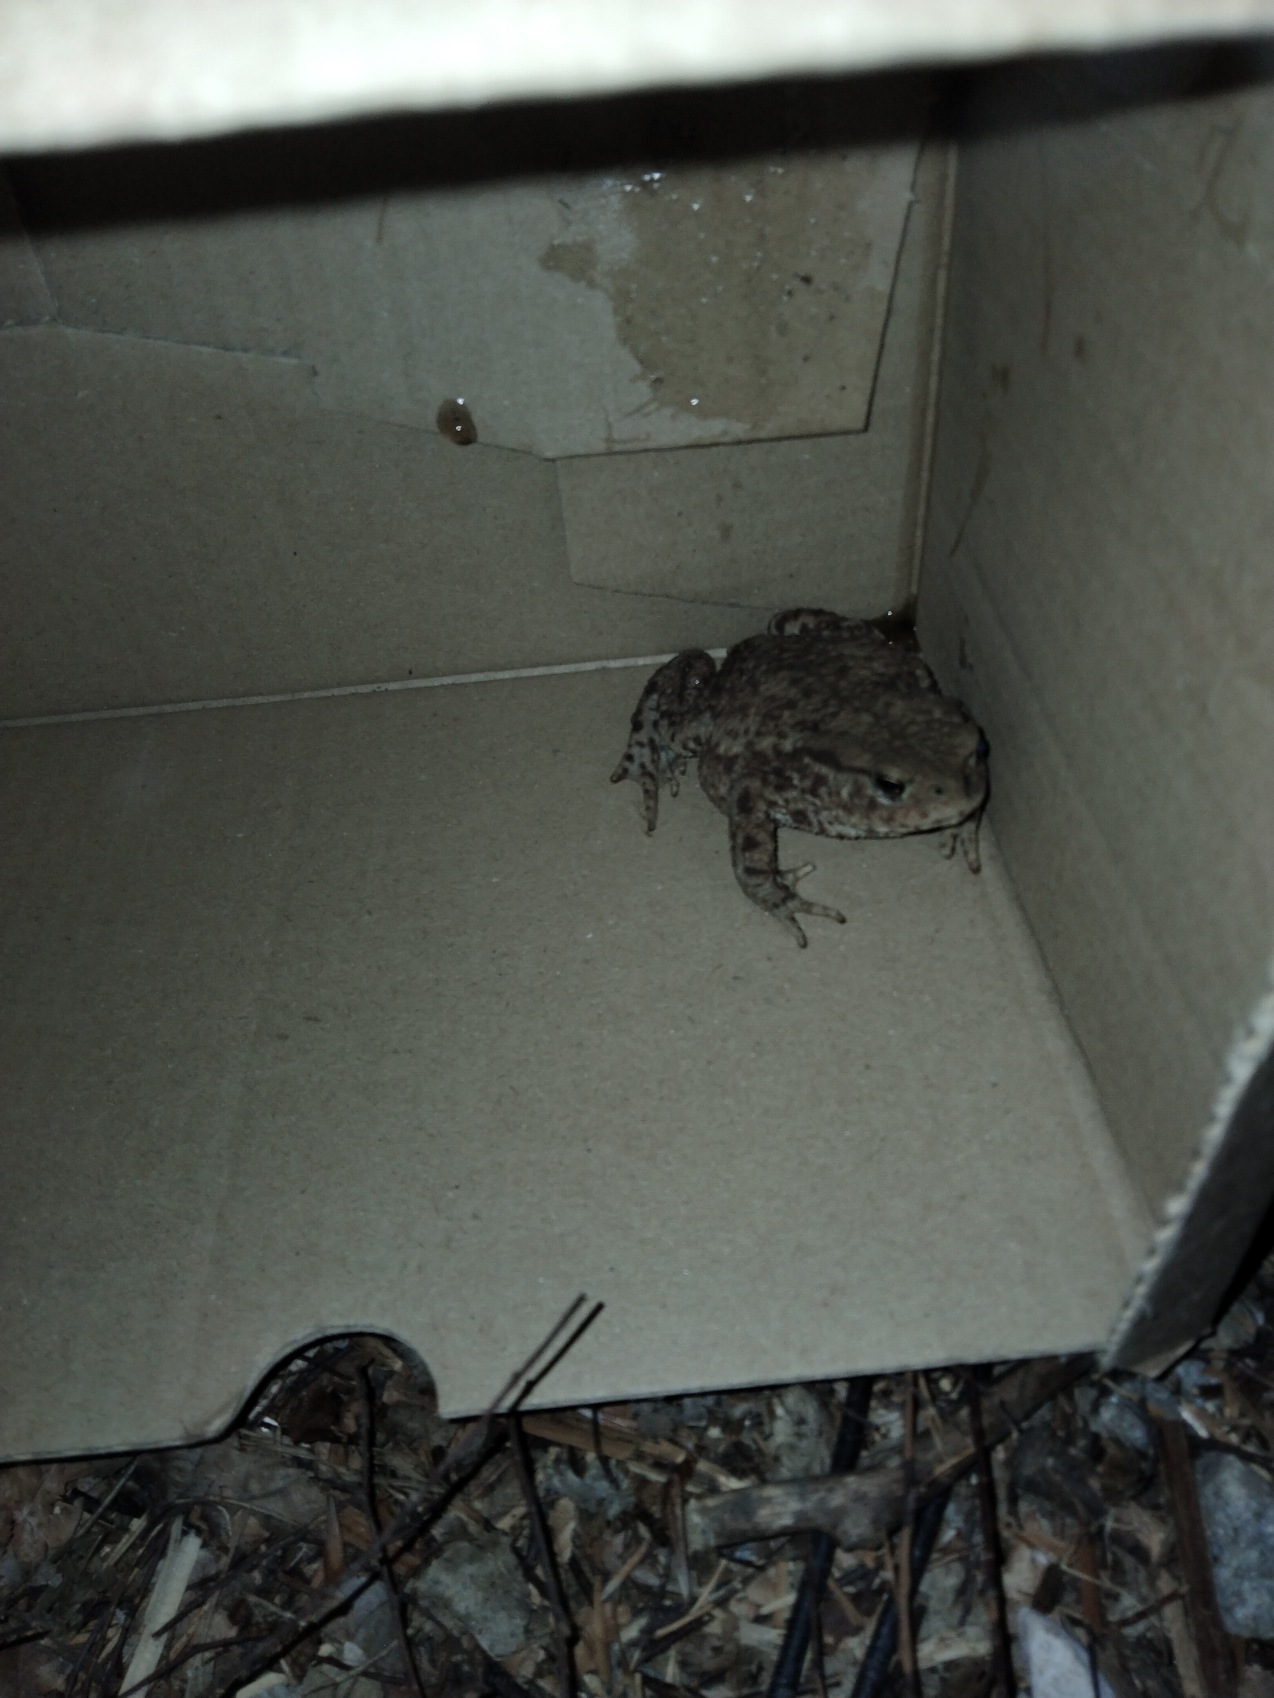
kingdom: Animalia
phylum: Chordata
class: Amphibia
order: Anura
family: Bufonidae
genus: Bufo
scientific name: Bufo bufo
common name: Skrubtudse
